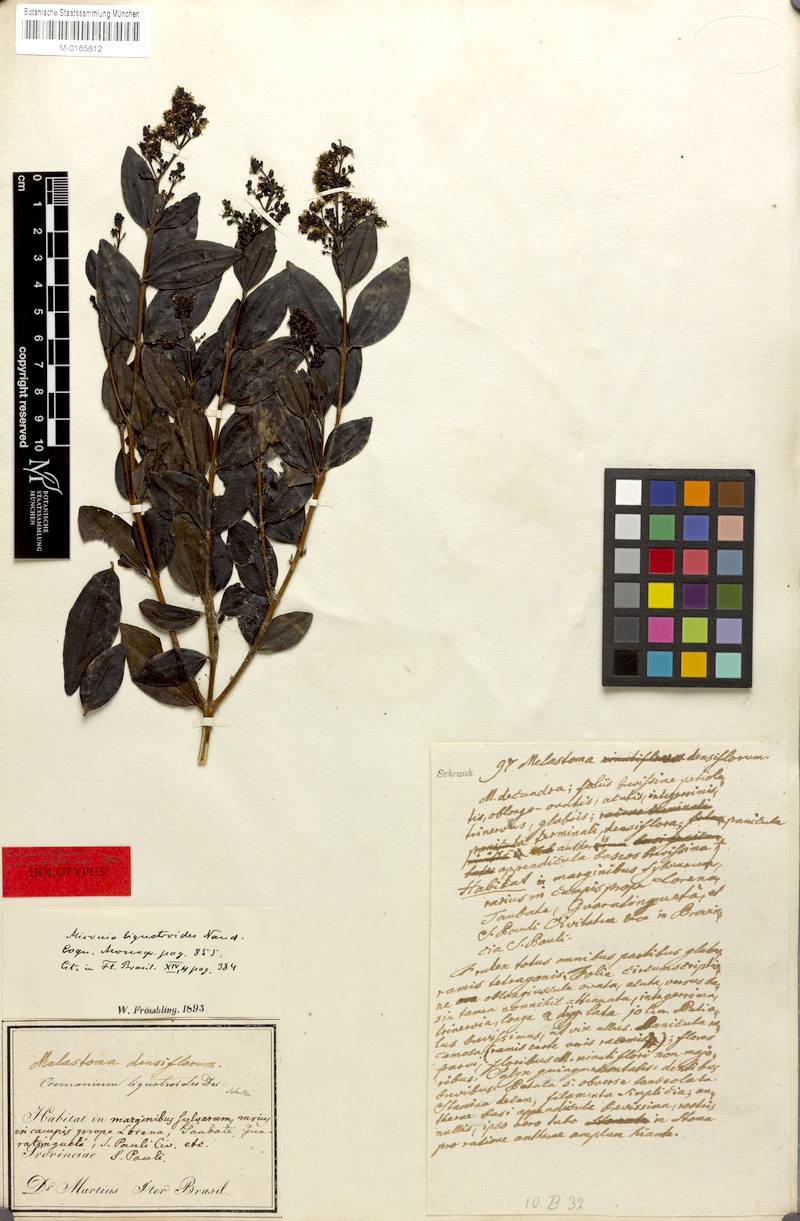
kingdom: Plantae
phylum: Tracheophyta
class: Magnoliopsida
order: Myrtales
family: Melastomataceae
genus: Miconia
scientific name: Miconia ligustroides
